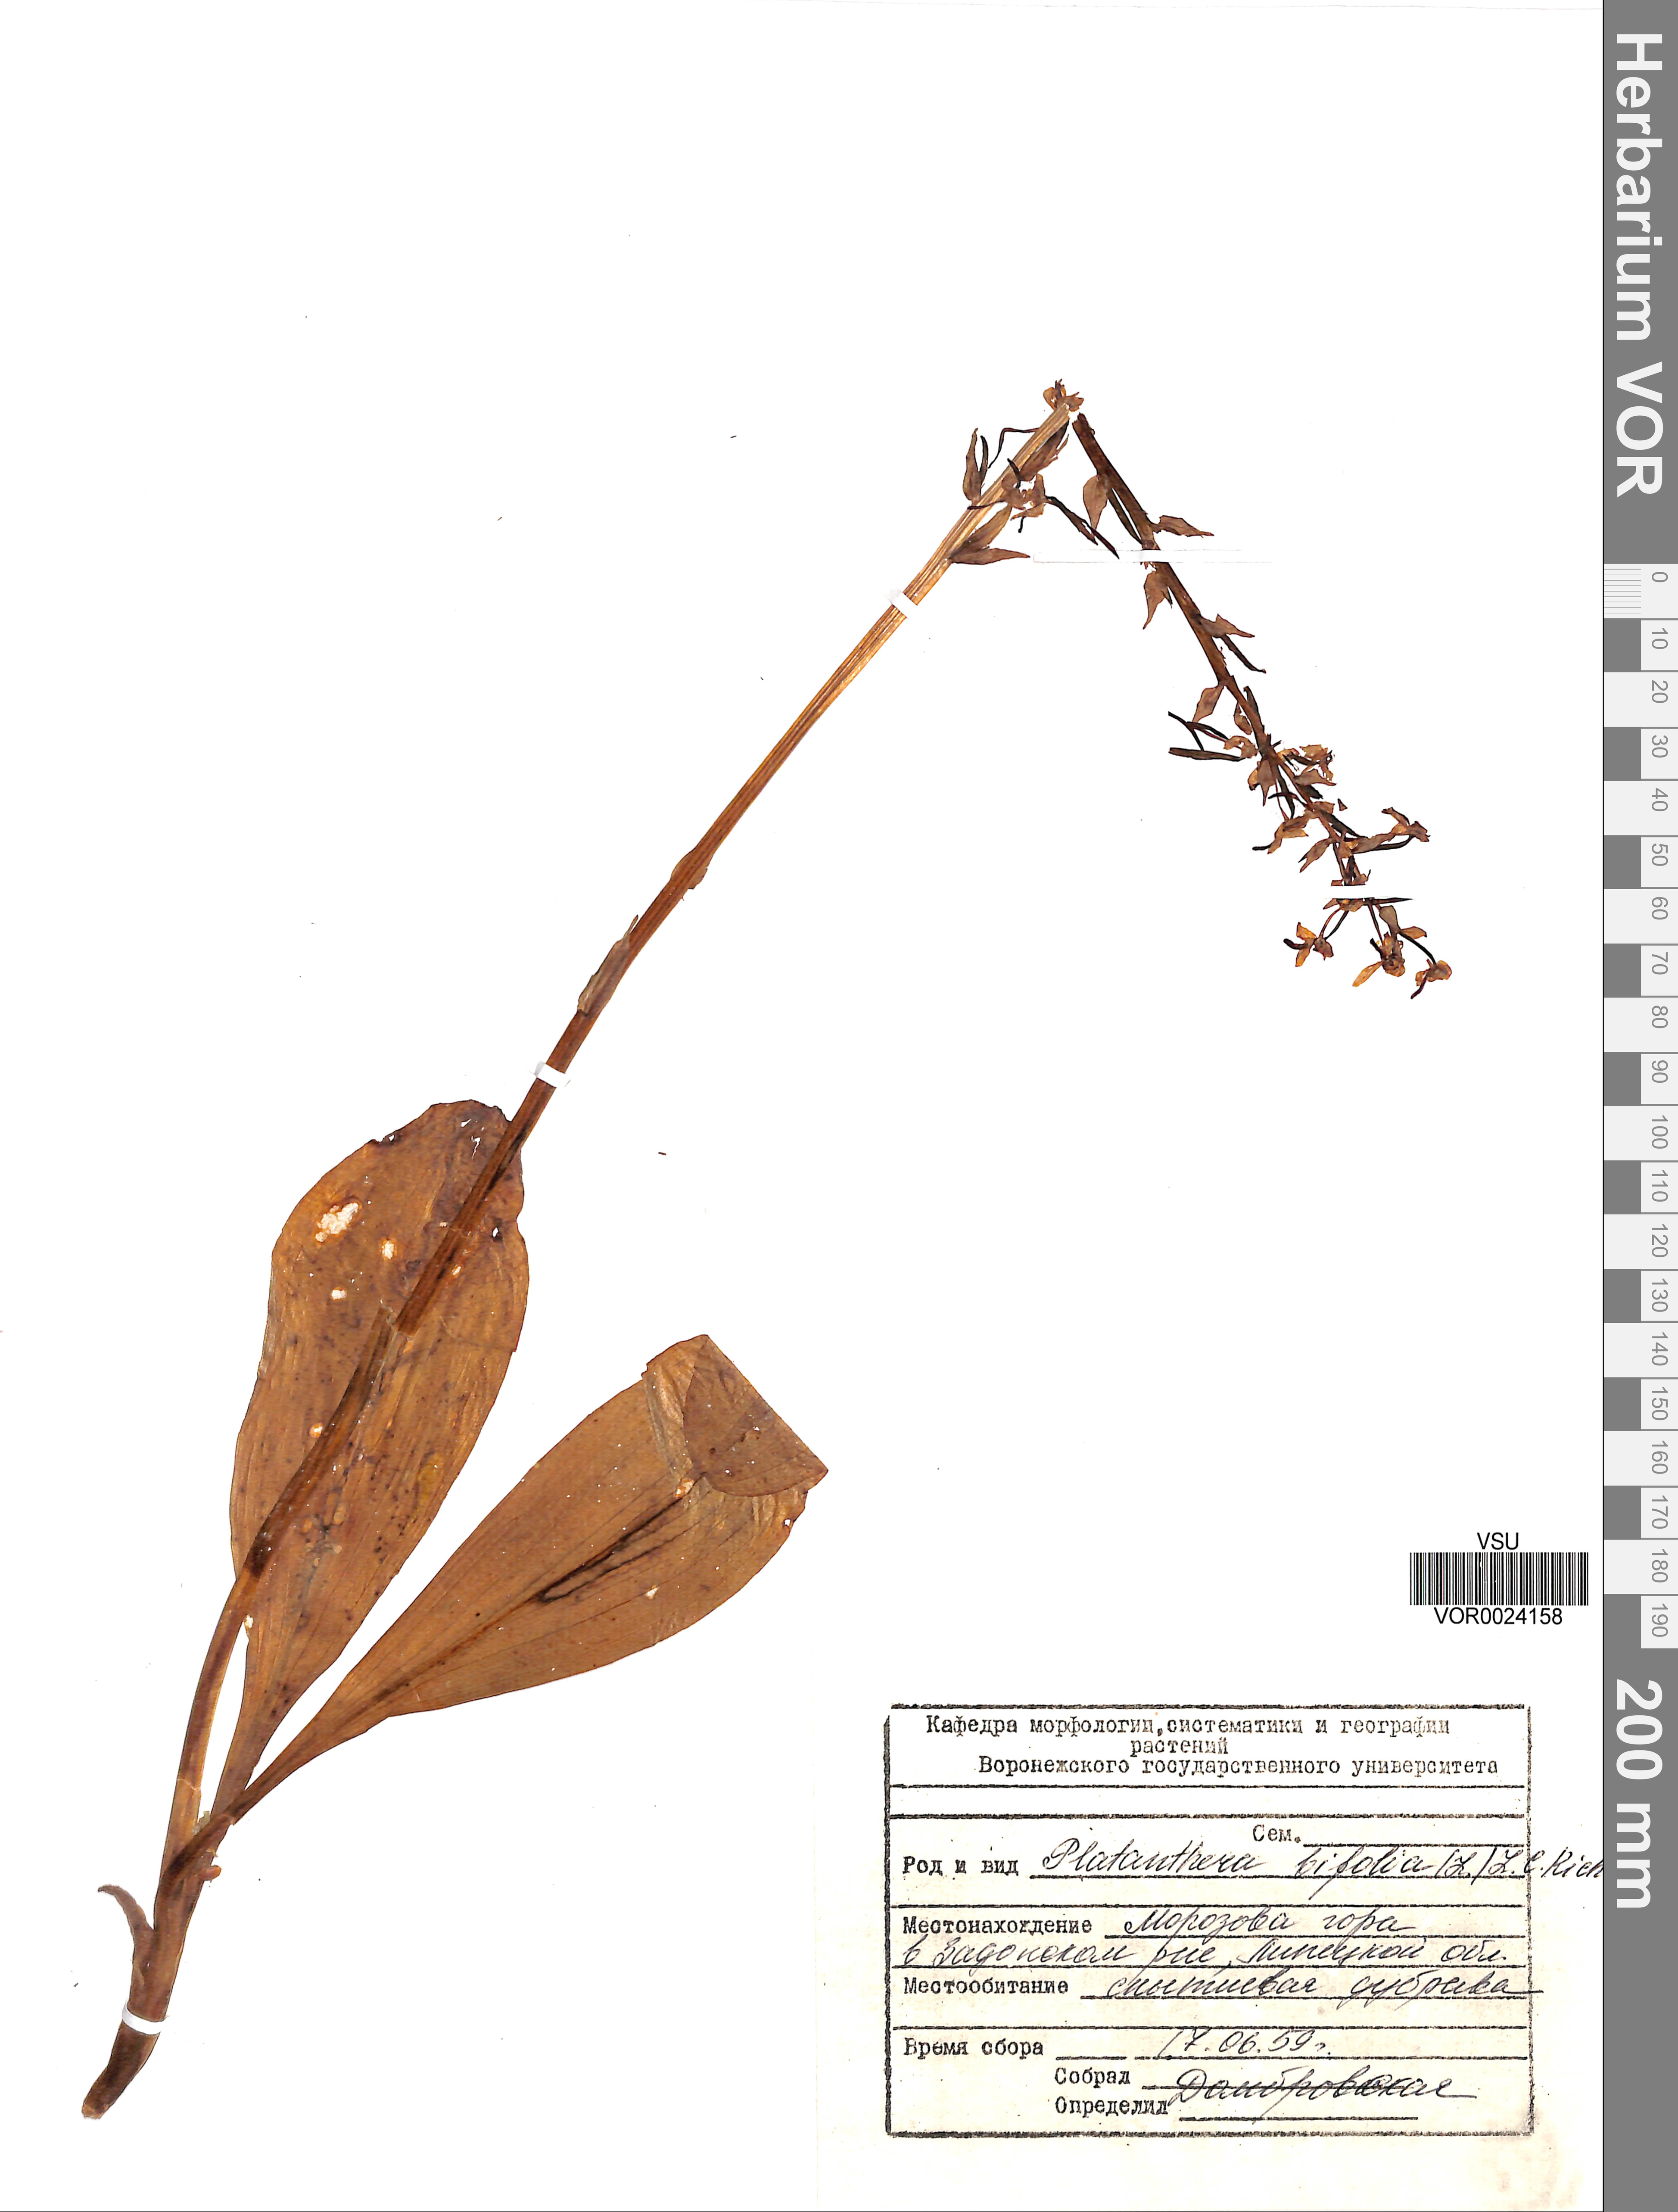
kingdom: Plantae
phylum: Tracheophyta
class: Liliopsida
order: Asparagales
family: Orchidaceae
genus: Platanthera
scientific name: Platanthera bifolia
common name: Lesser butterfly-orchid
